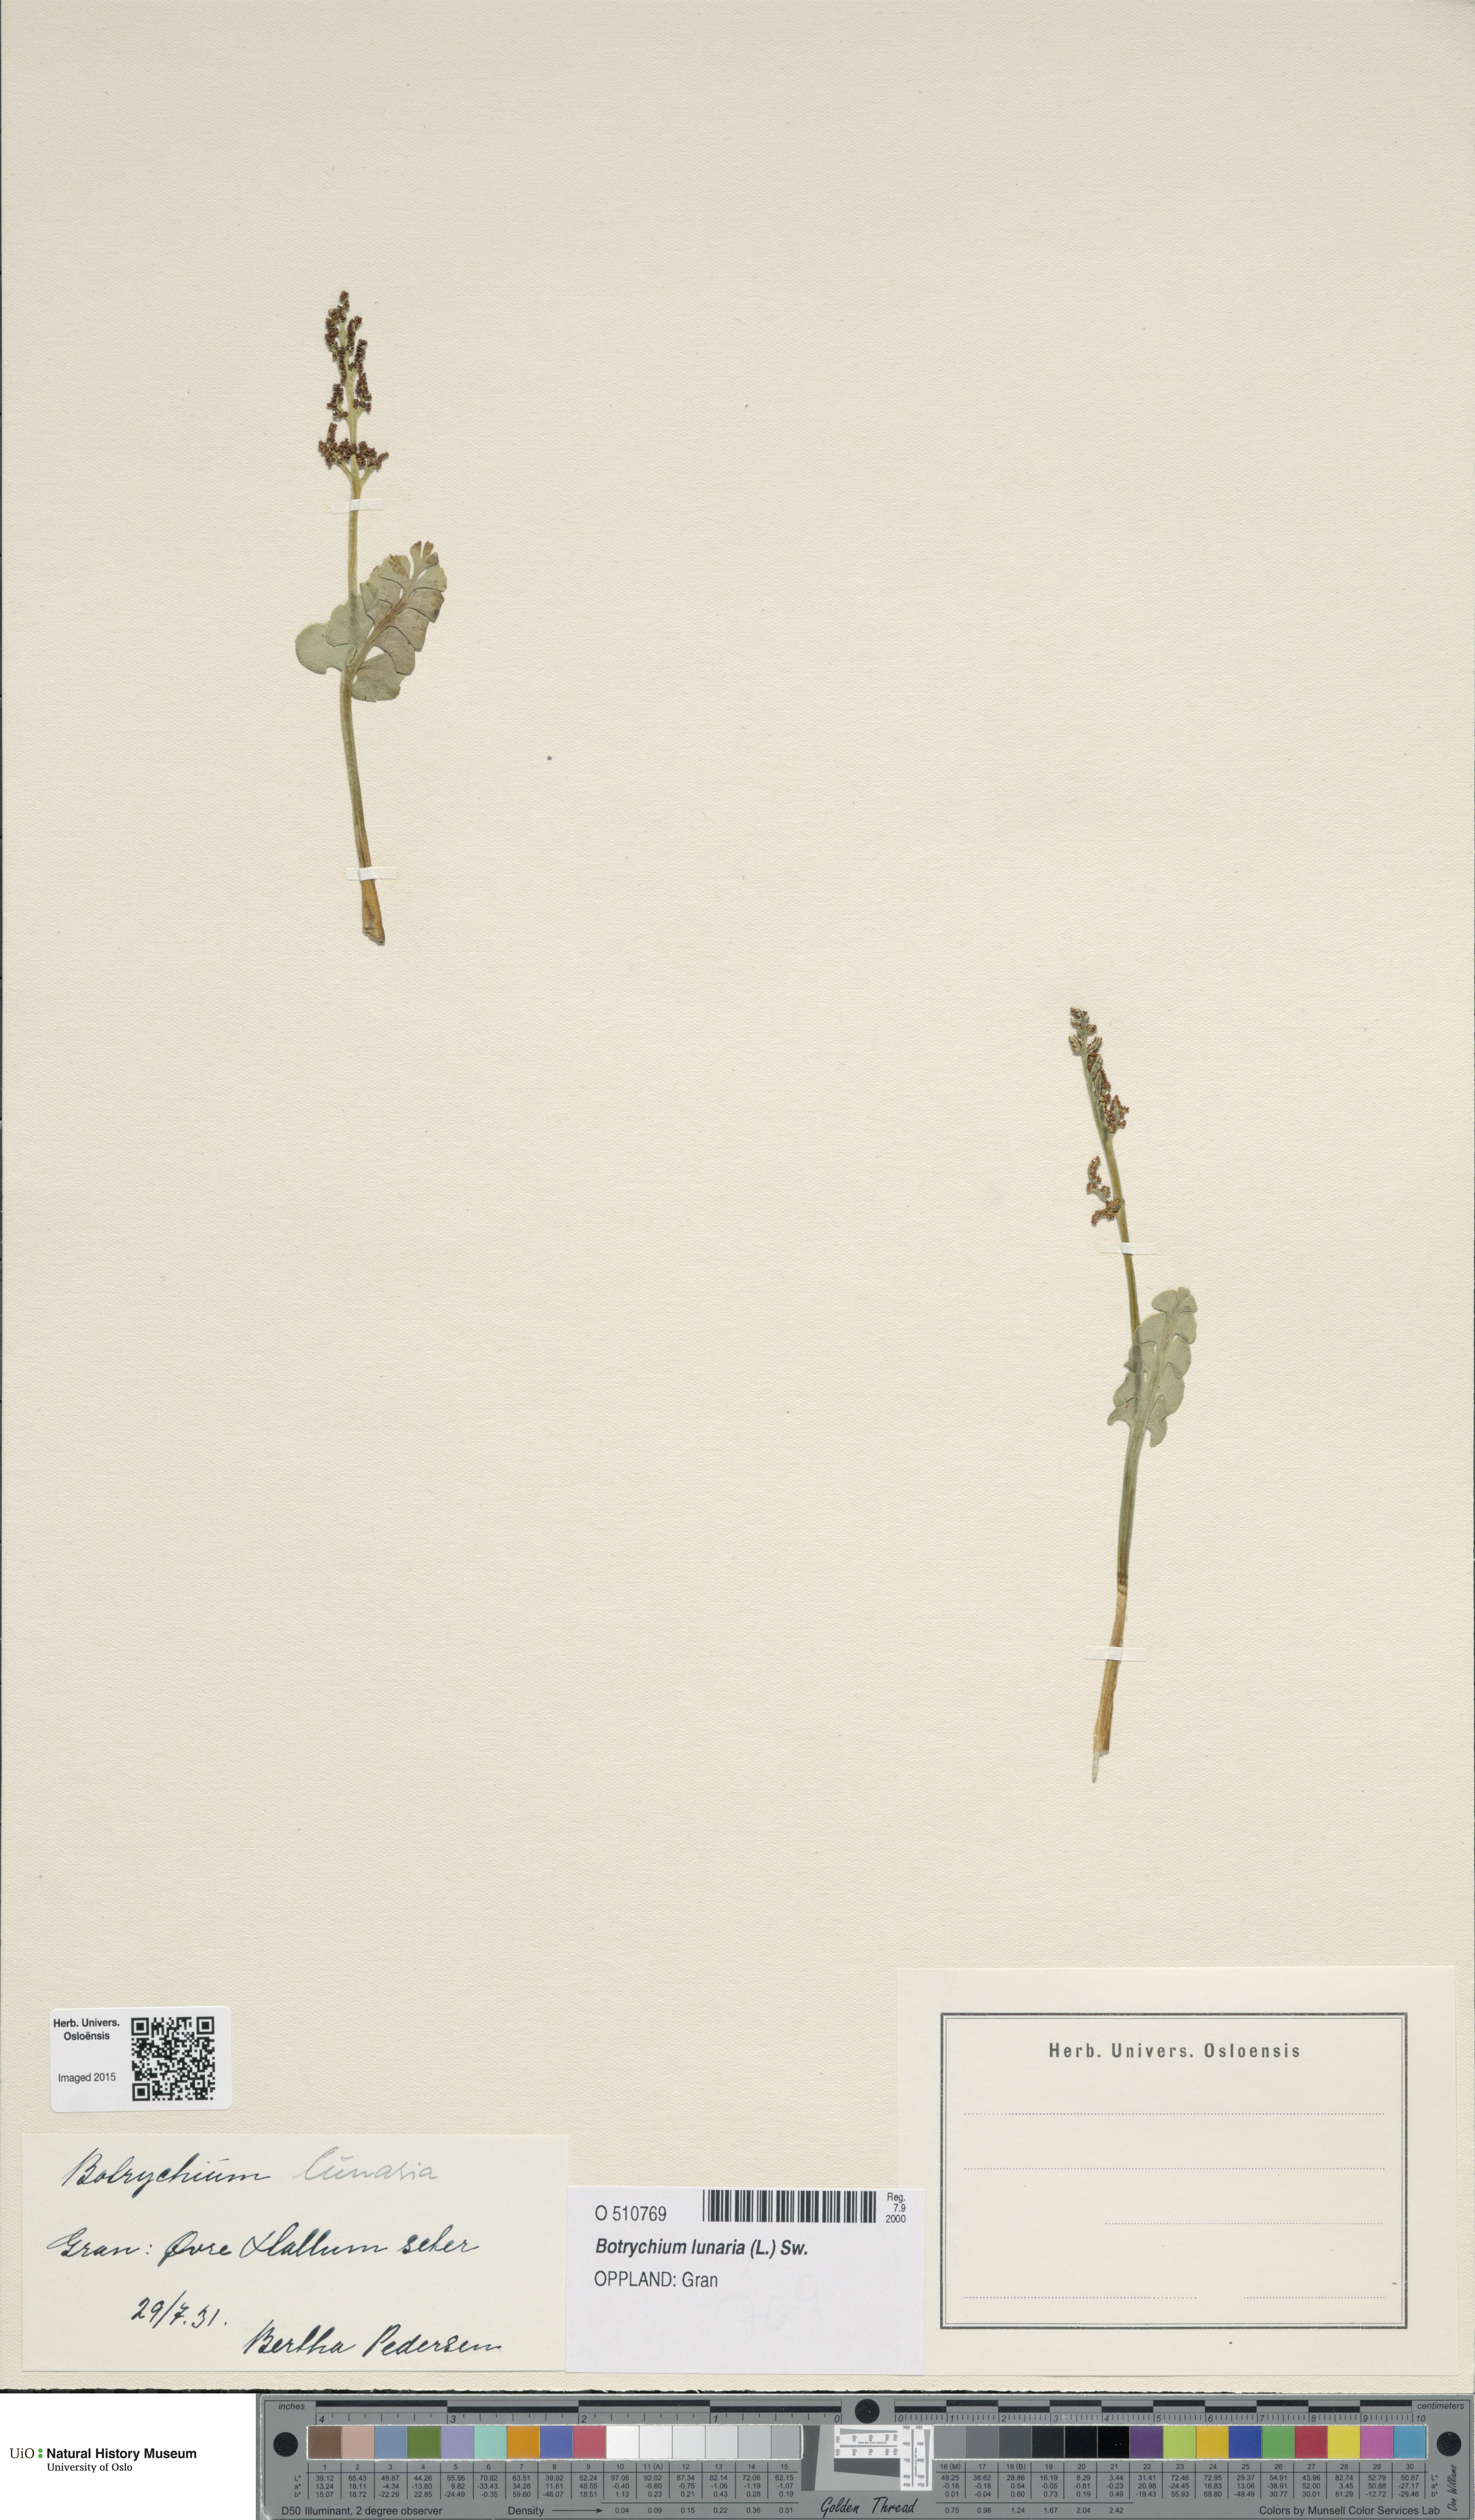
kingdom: Plantae
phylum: Tracheophyta
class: Polypodiopsida
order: Ophioglossales
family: Ophioglossaceae
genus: Botrychium
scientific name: Botrychium lunaria
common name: Moonwort
